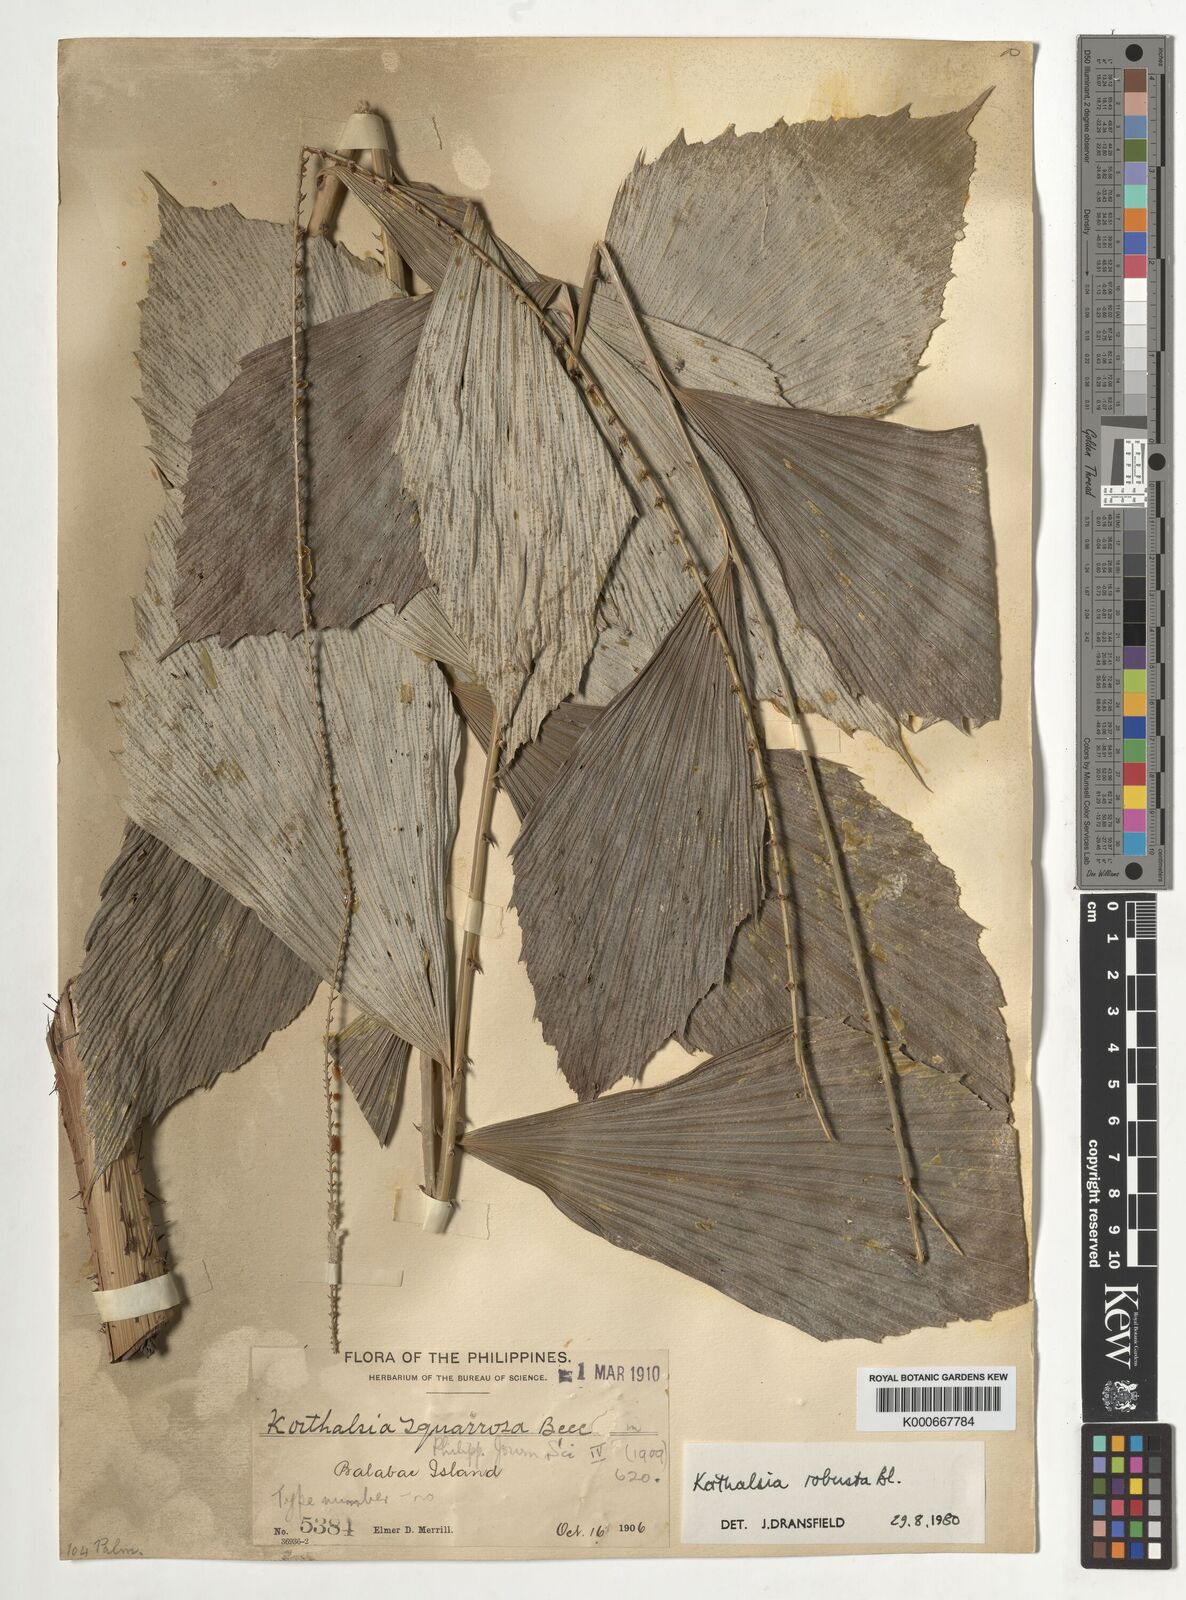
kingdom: Plantae
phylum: Tracheophyta
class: Liliopsida
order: Arecales
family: Arecaceae
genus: Korthalsia
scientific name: Korthalsia robusta
